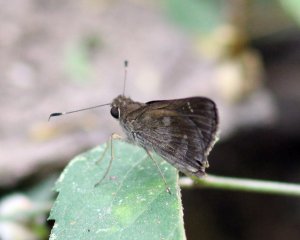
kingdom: Animalia
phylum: Arthropoda
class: Insecta
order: Lepidoptera
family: Hesperiidae
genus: Cymaenes
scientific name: Cymaenes odilia
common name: Fawn-spotted Skipper
